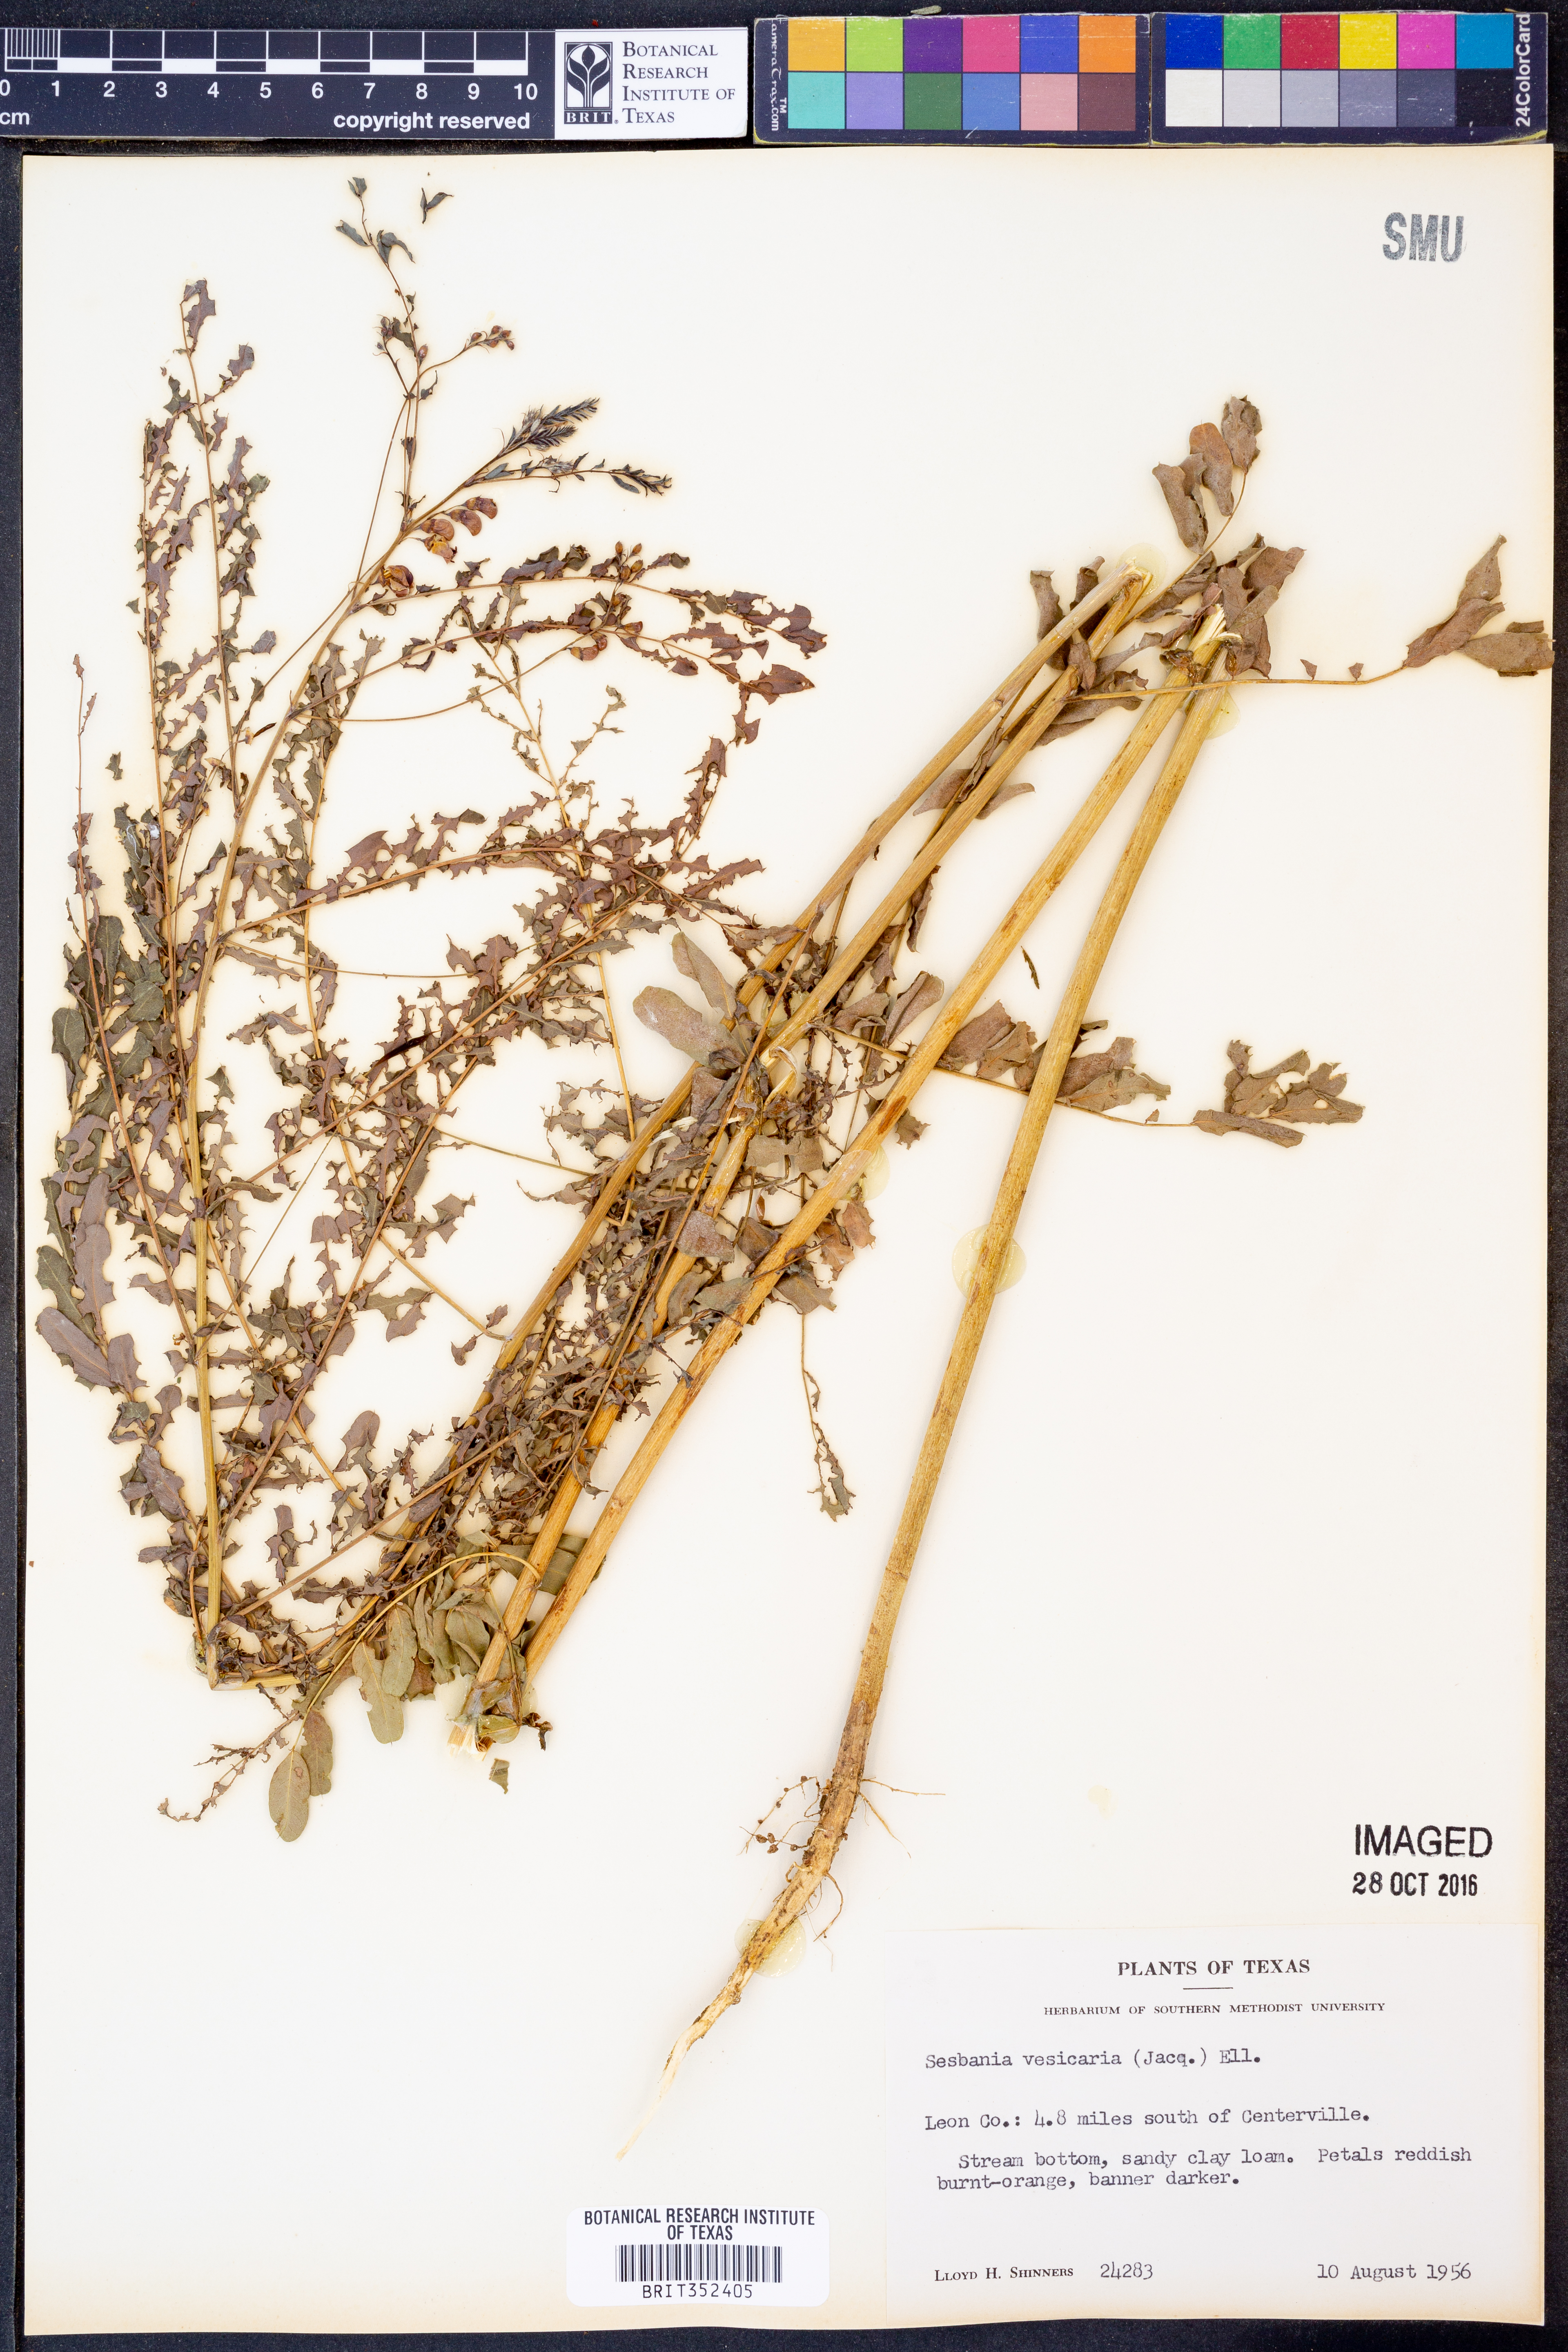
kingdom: Plantae
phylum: Tracheophyta
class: Magnoliopsida
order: Fabales
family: Fabaceae
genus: Sesbania
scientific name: Sesbania vesicaria
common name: Bagpod
